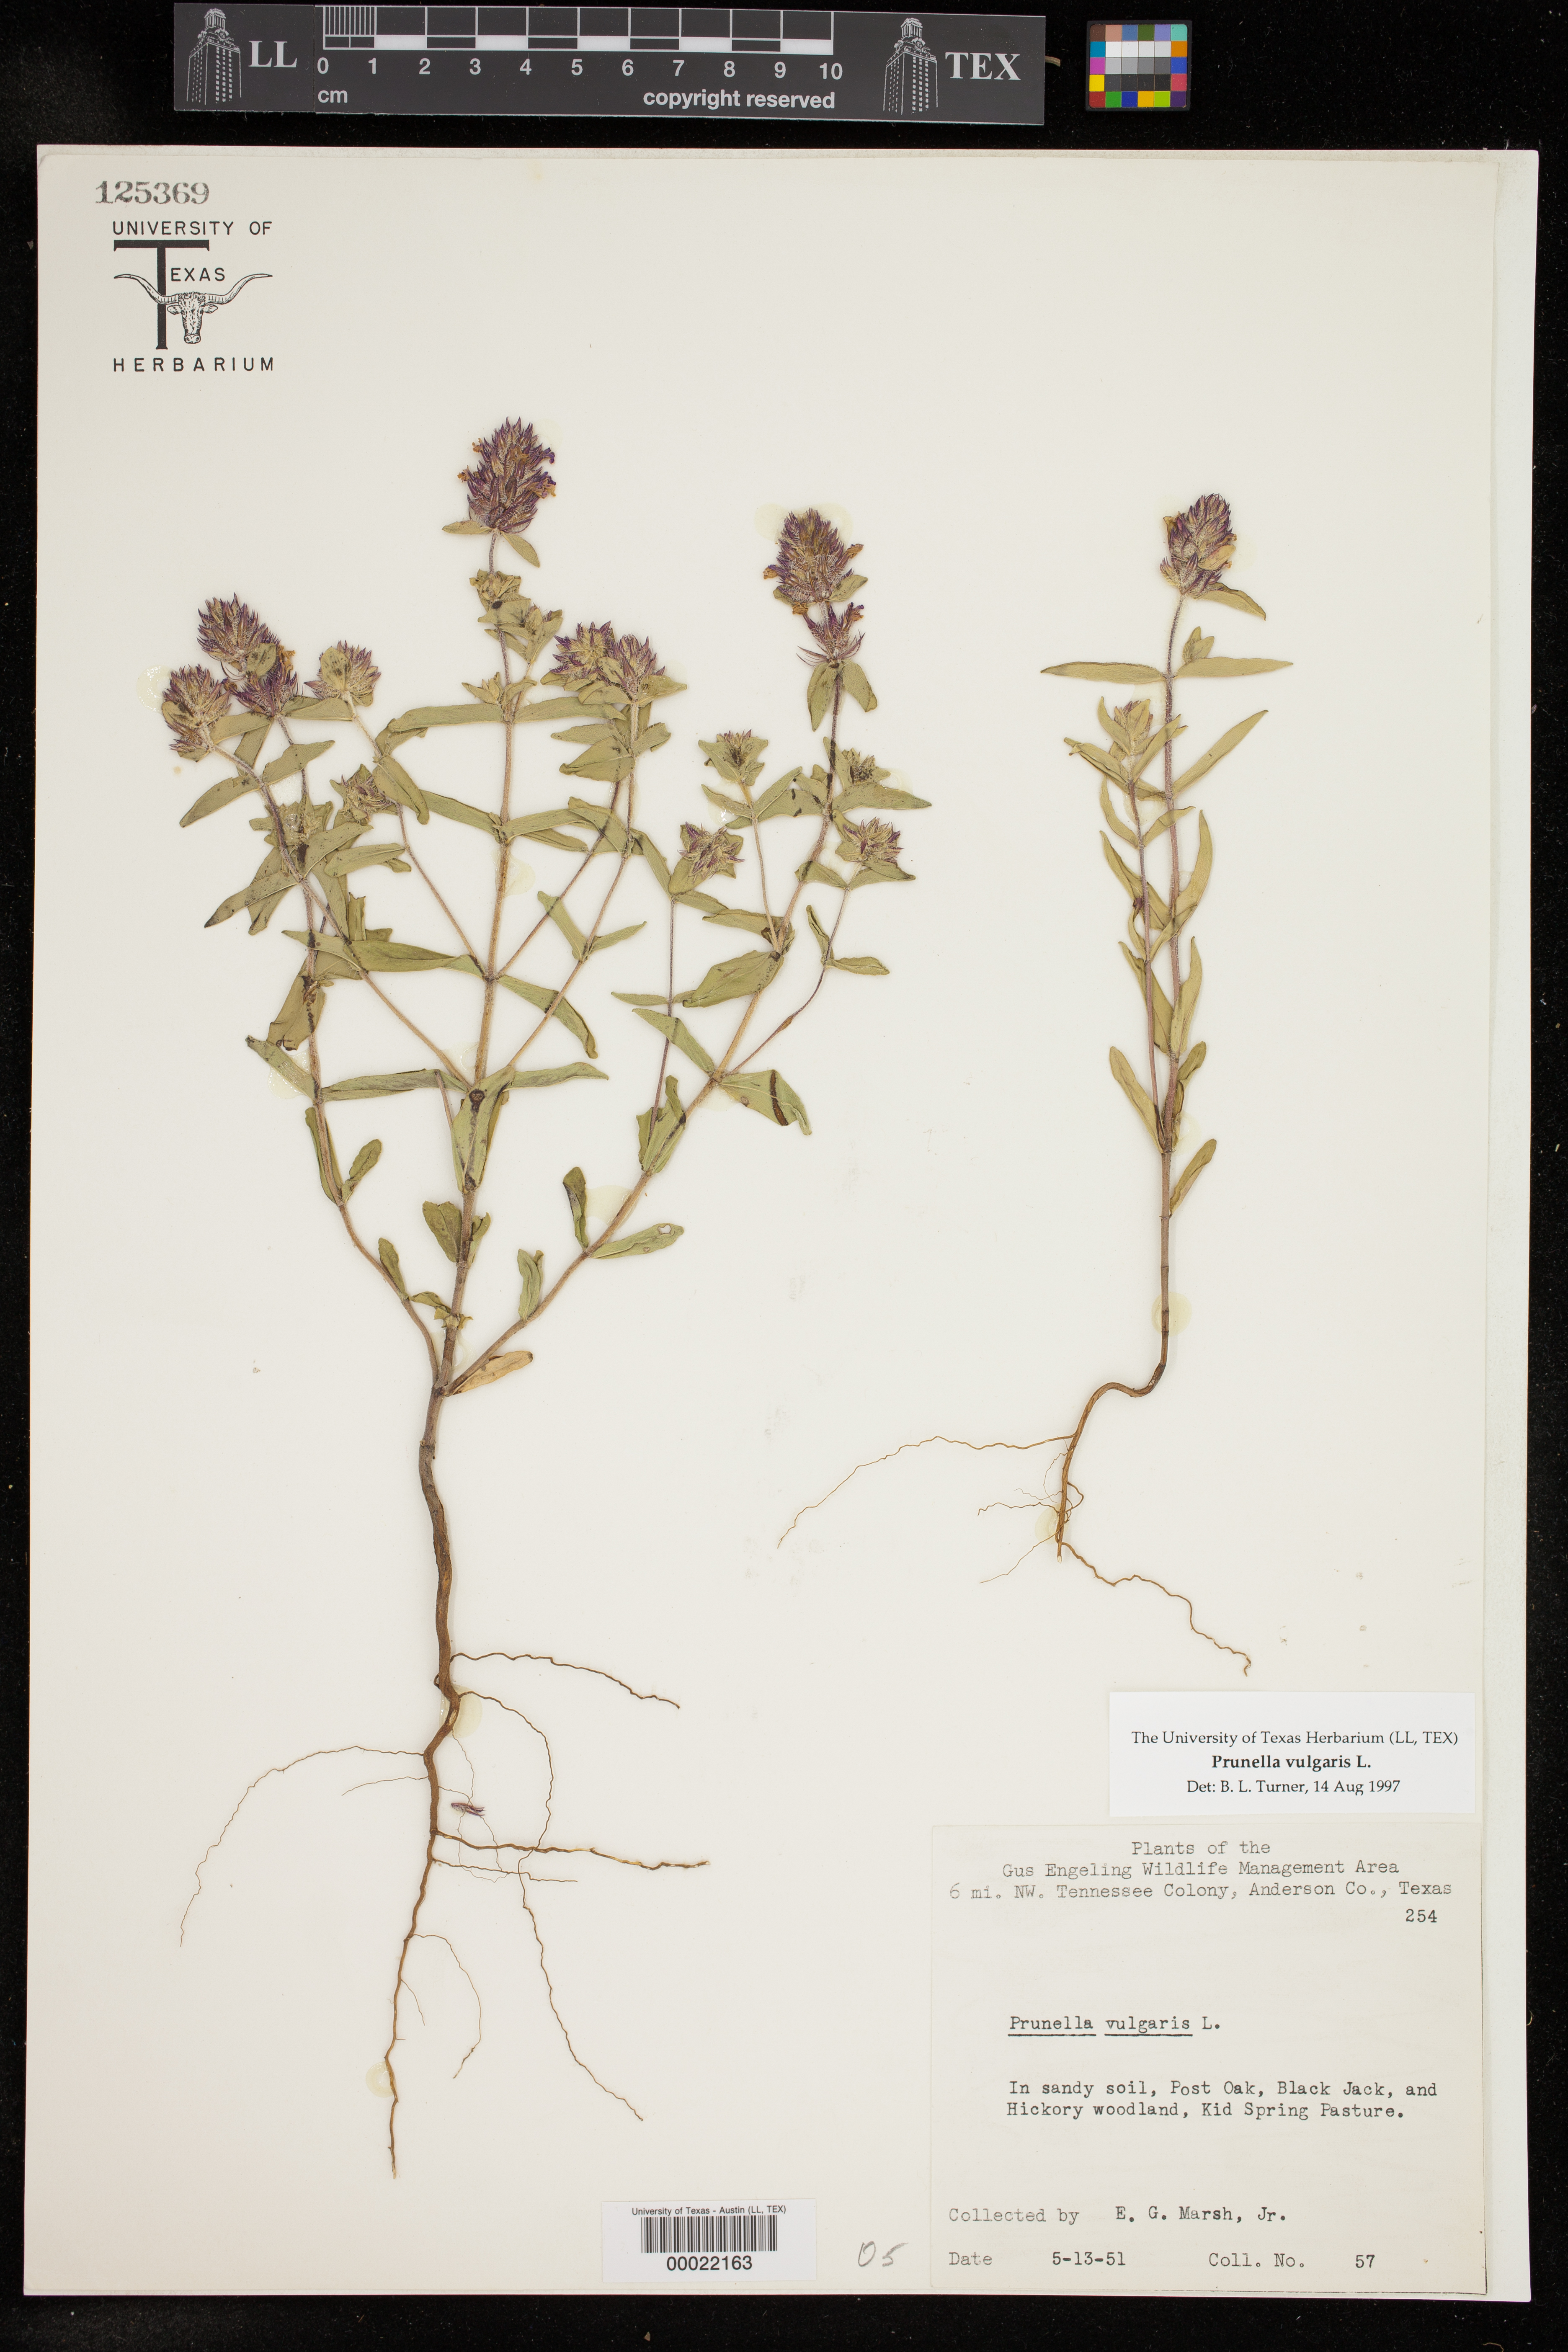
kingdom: Plantae
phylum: Tracheophyta
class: Magnoliopsida
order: Lamiales
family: Lamiaceae
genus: Prunella
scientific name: Prunella vulgaris
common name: Heal-all
